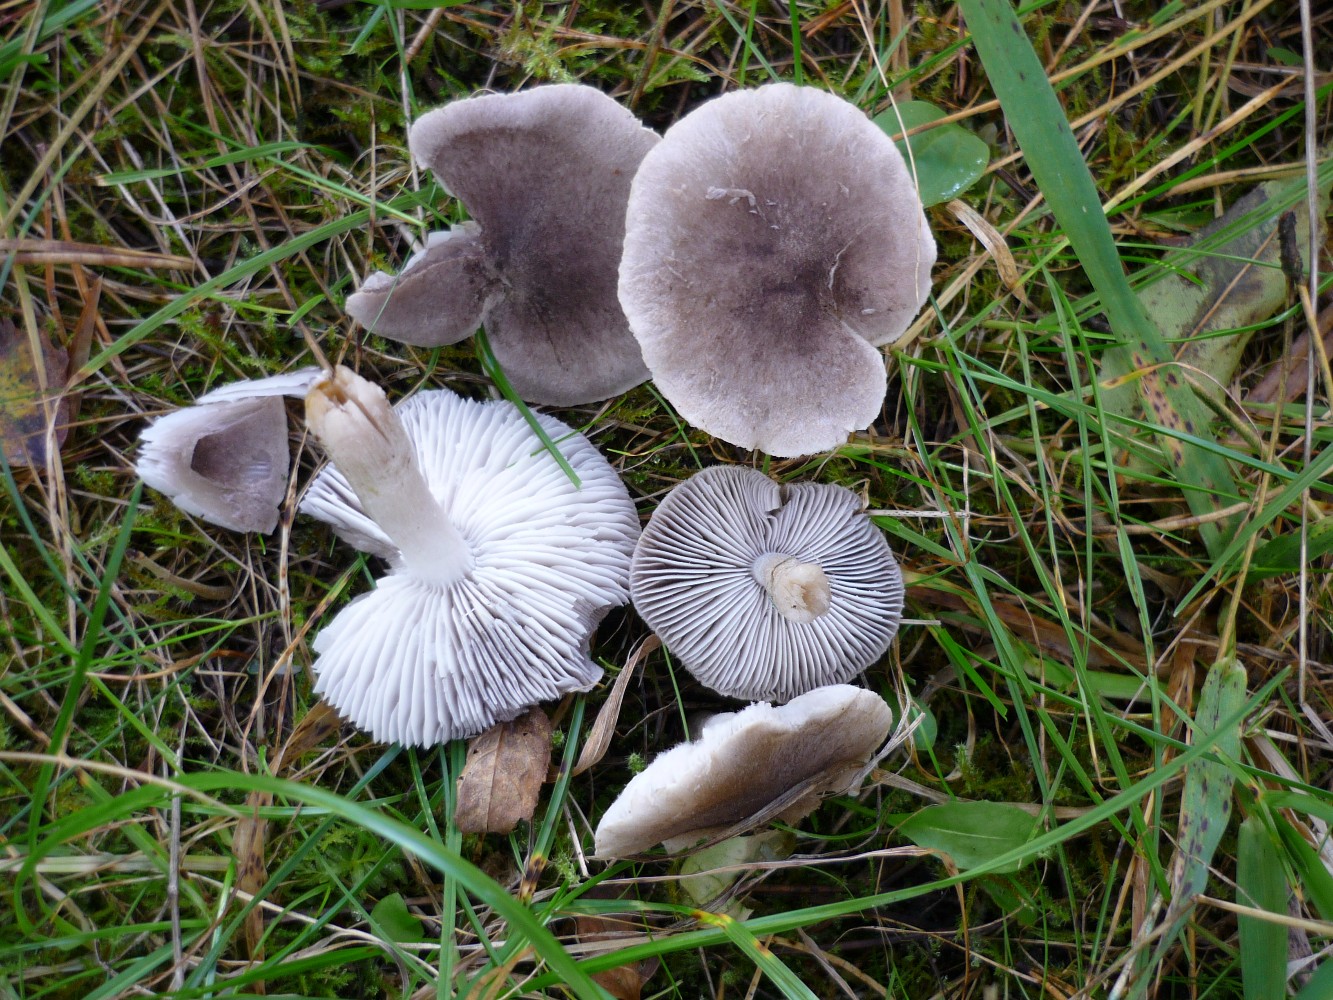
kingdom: Fungi
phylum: Basidiomycota
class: Agaricomycetes
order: Agaricales
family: Tricholomataceae
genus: Tricholoma
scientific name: Tricholoma terreum
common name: jordfarvet ridderhat
